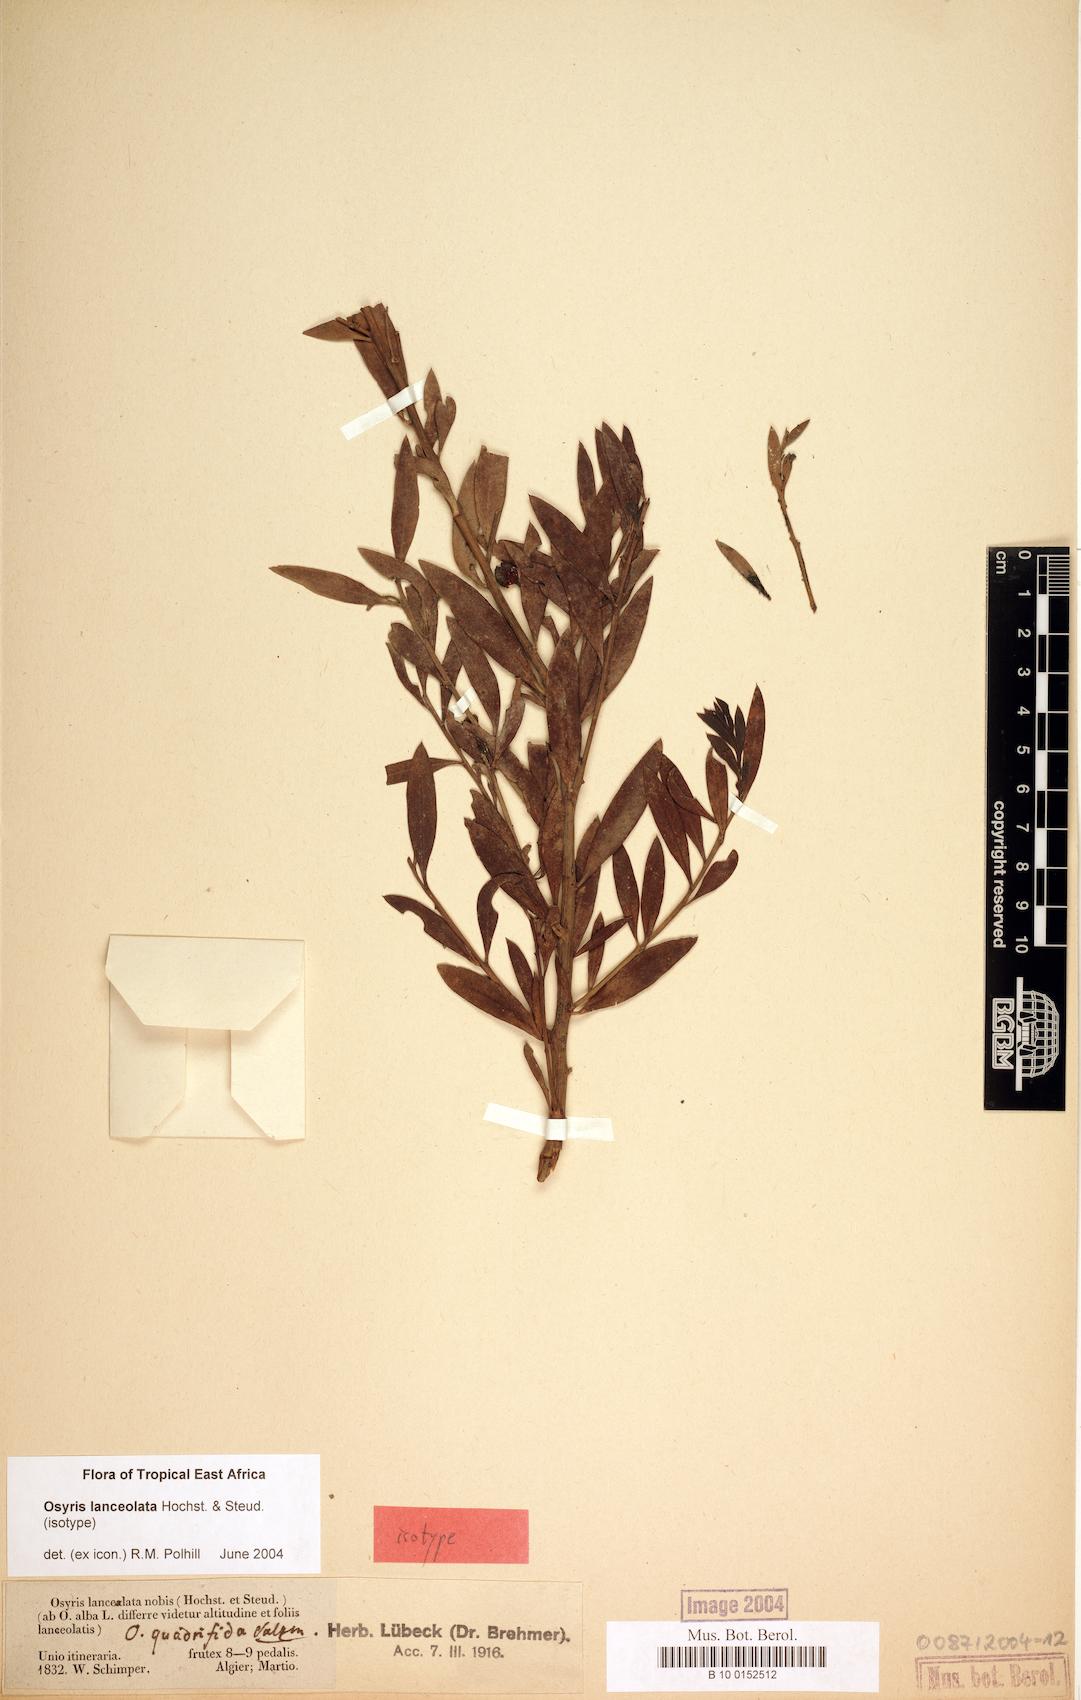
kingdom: Plantae
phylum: Tracheophyta
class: Magnoliopsida
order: Santalales
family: Santalaceae
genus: Osyris
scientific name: Osyris lanceolata
